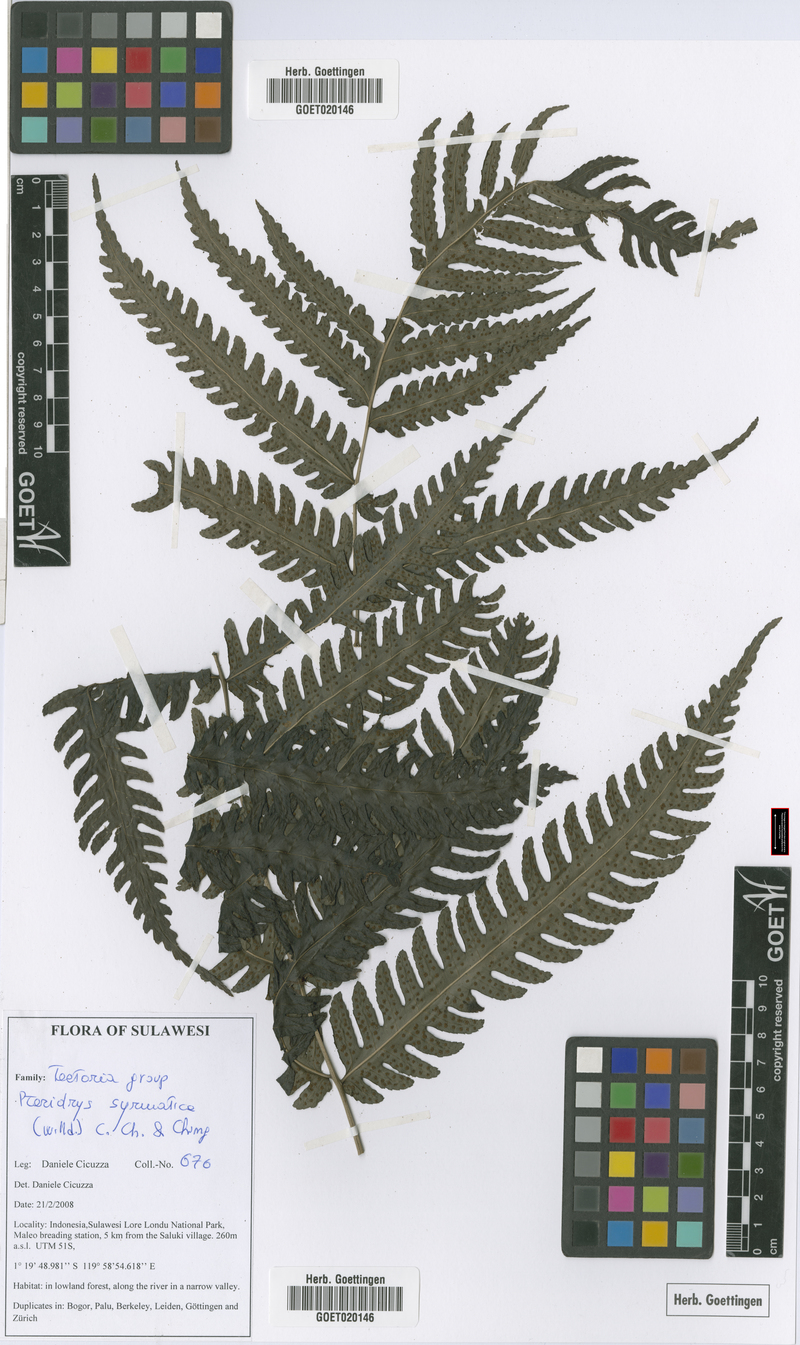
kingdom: Plantae
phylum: Tracheophyta
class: Polypodiopsida
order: Polypodiales
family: Tectariaceae
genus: Pteridrys
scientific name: Pteridrys syrmatica
